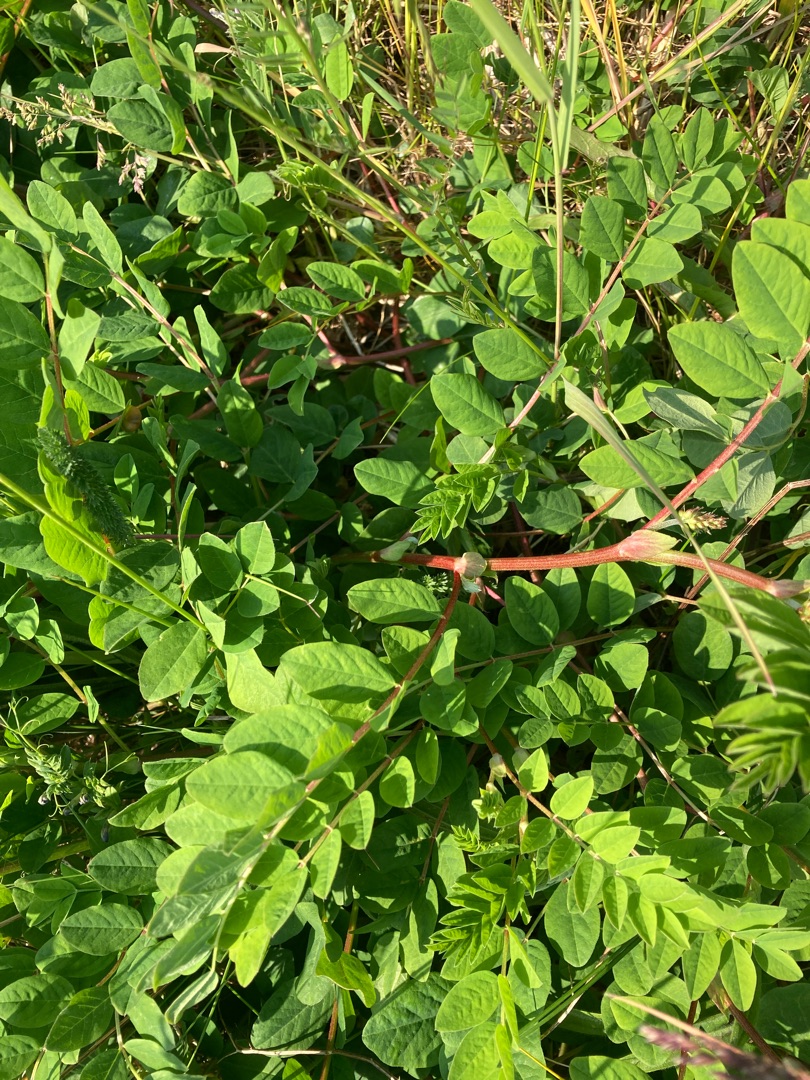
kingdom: Plantae
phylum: Tracheophyta
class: Magnoliopsida
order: Fabales
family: Fabaceae
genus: Astragalus
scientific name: Astragalus glycyphyllos
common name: Sød astragel
